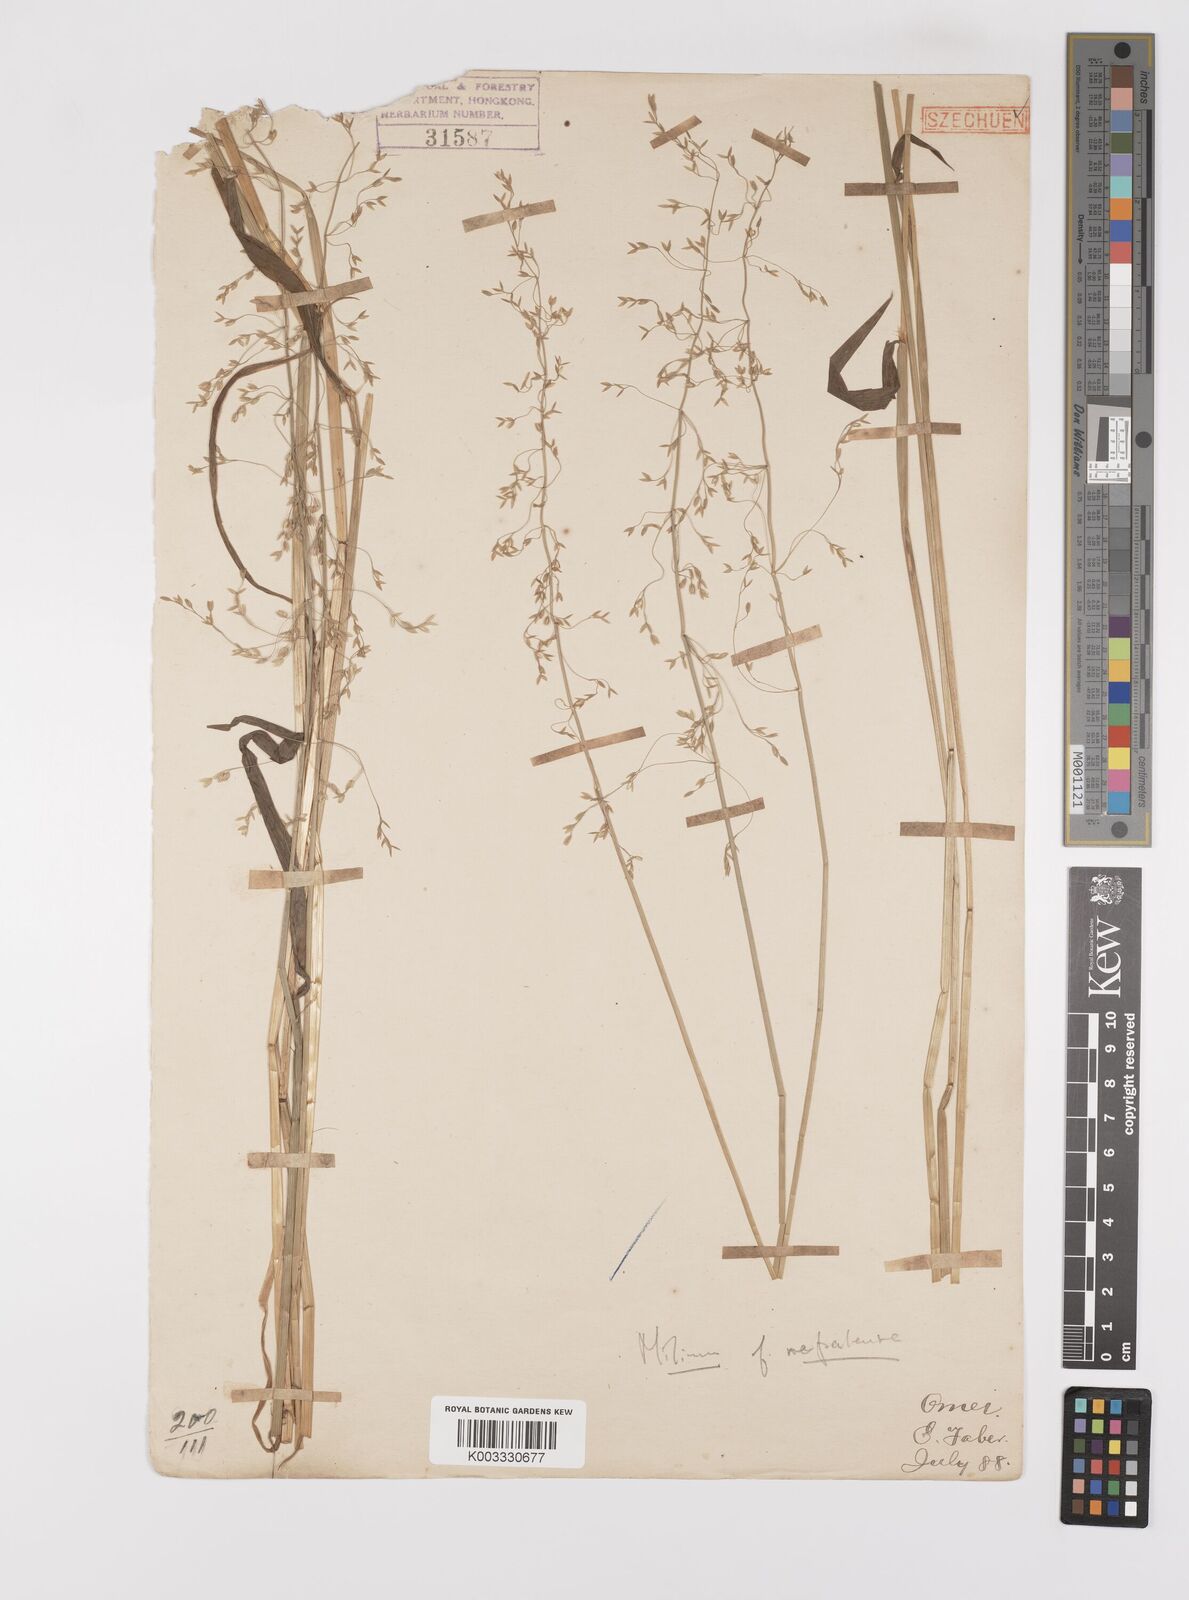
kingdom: Plantae
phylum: Tracheophyta
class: Liliopsida
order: Poales
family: Poaceae
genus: Milium
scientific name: Milium effusum
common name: Wood millet
